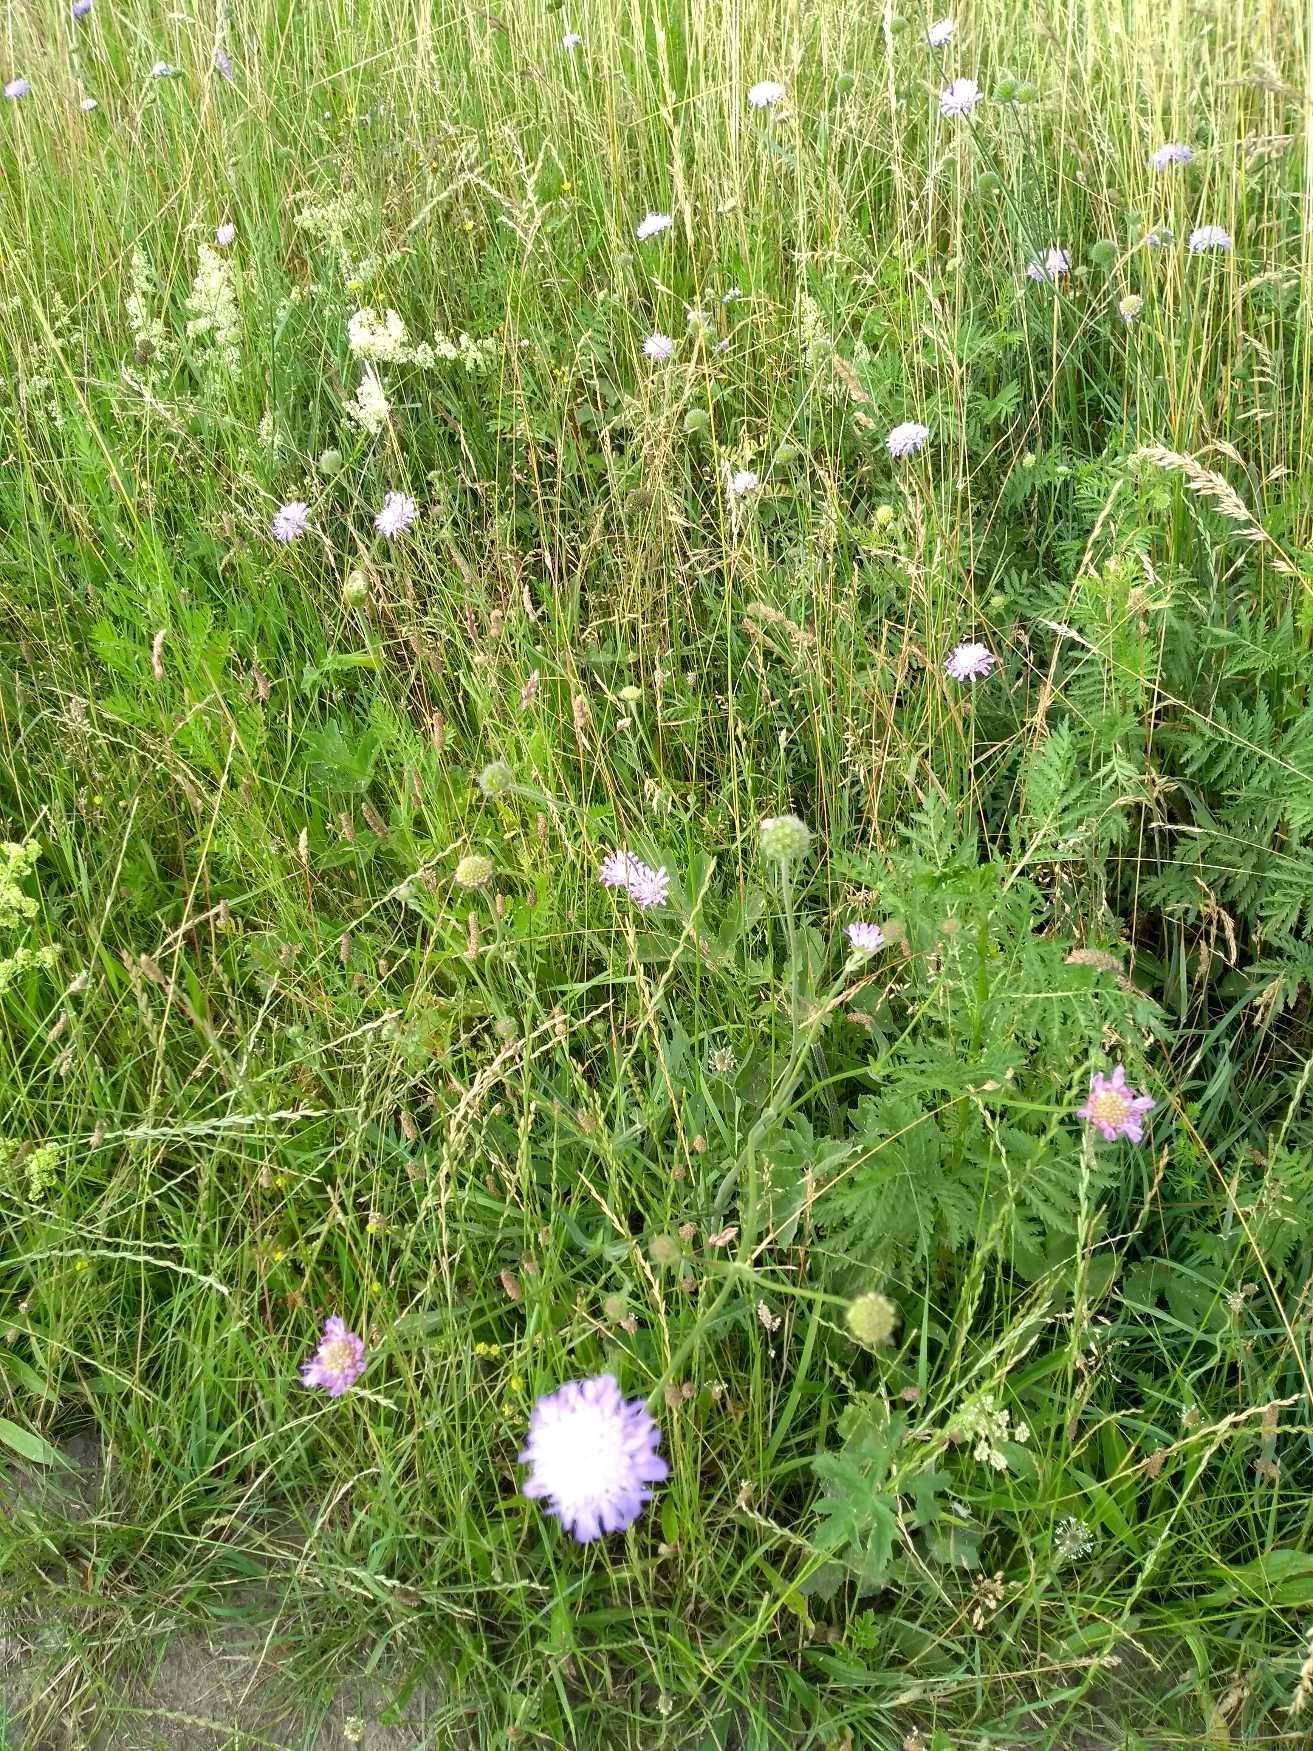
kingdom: Plantae
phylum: Tracheophyta
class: Magnoliopsida
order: Dipsacales
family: Caprifoliaceae
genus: Knautia
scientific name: Knautia arvensis
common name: Blåhat
